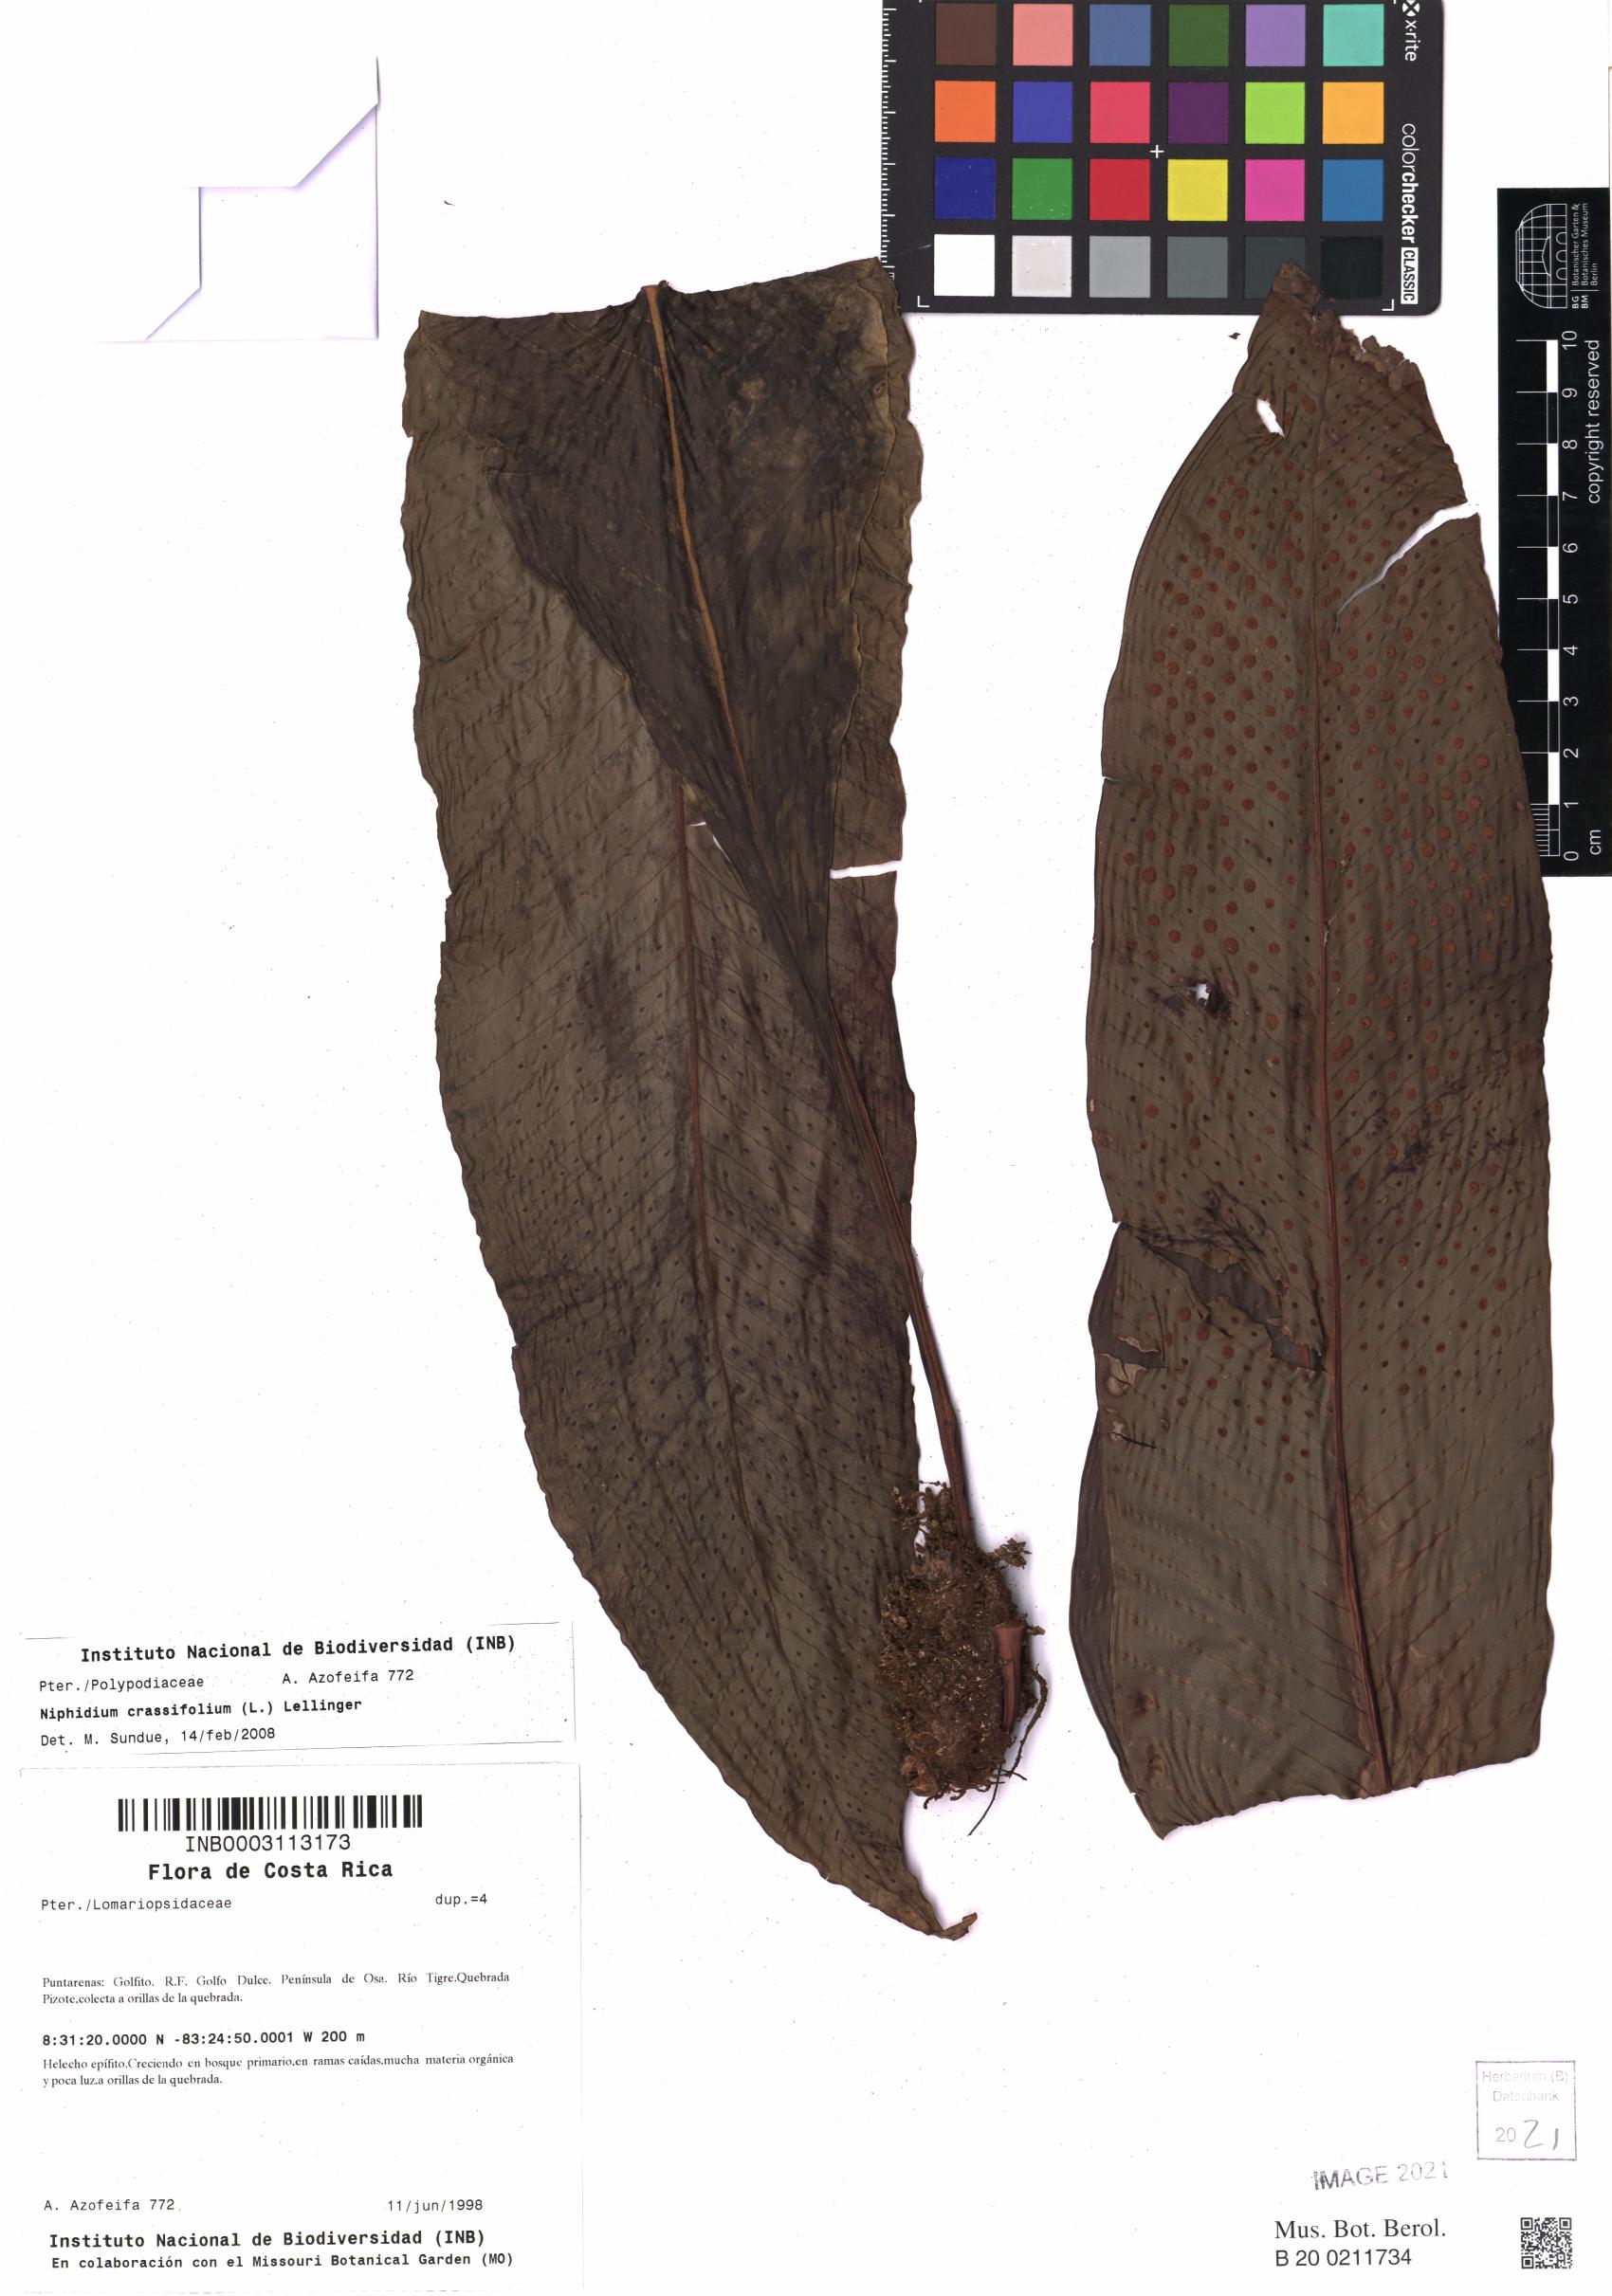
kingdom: Plantae
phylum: Tracheophyta
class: Polypodiopsida
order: Polypodiales
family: Polypodiaceae
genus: Niphidium
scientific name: Niphidium crassifolium
